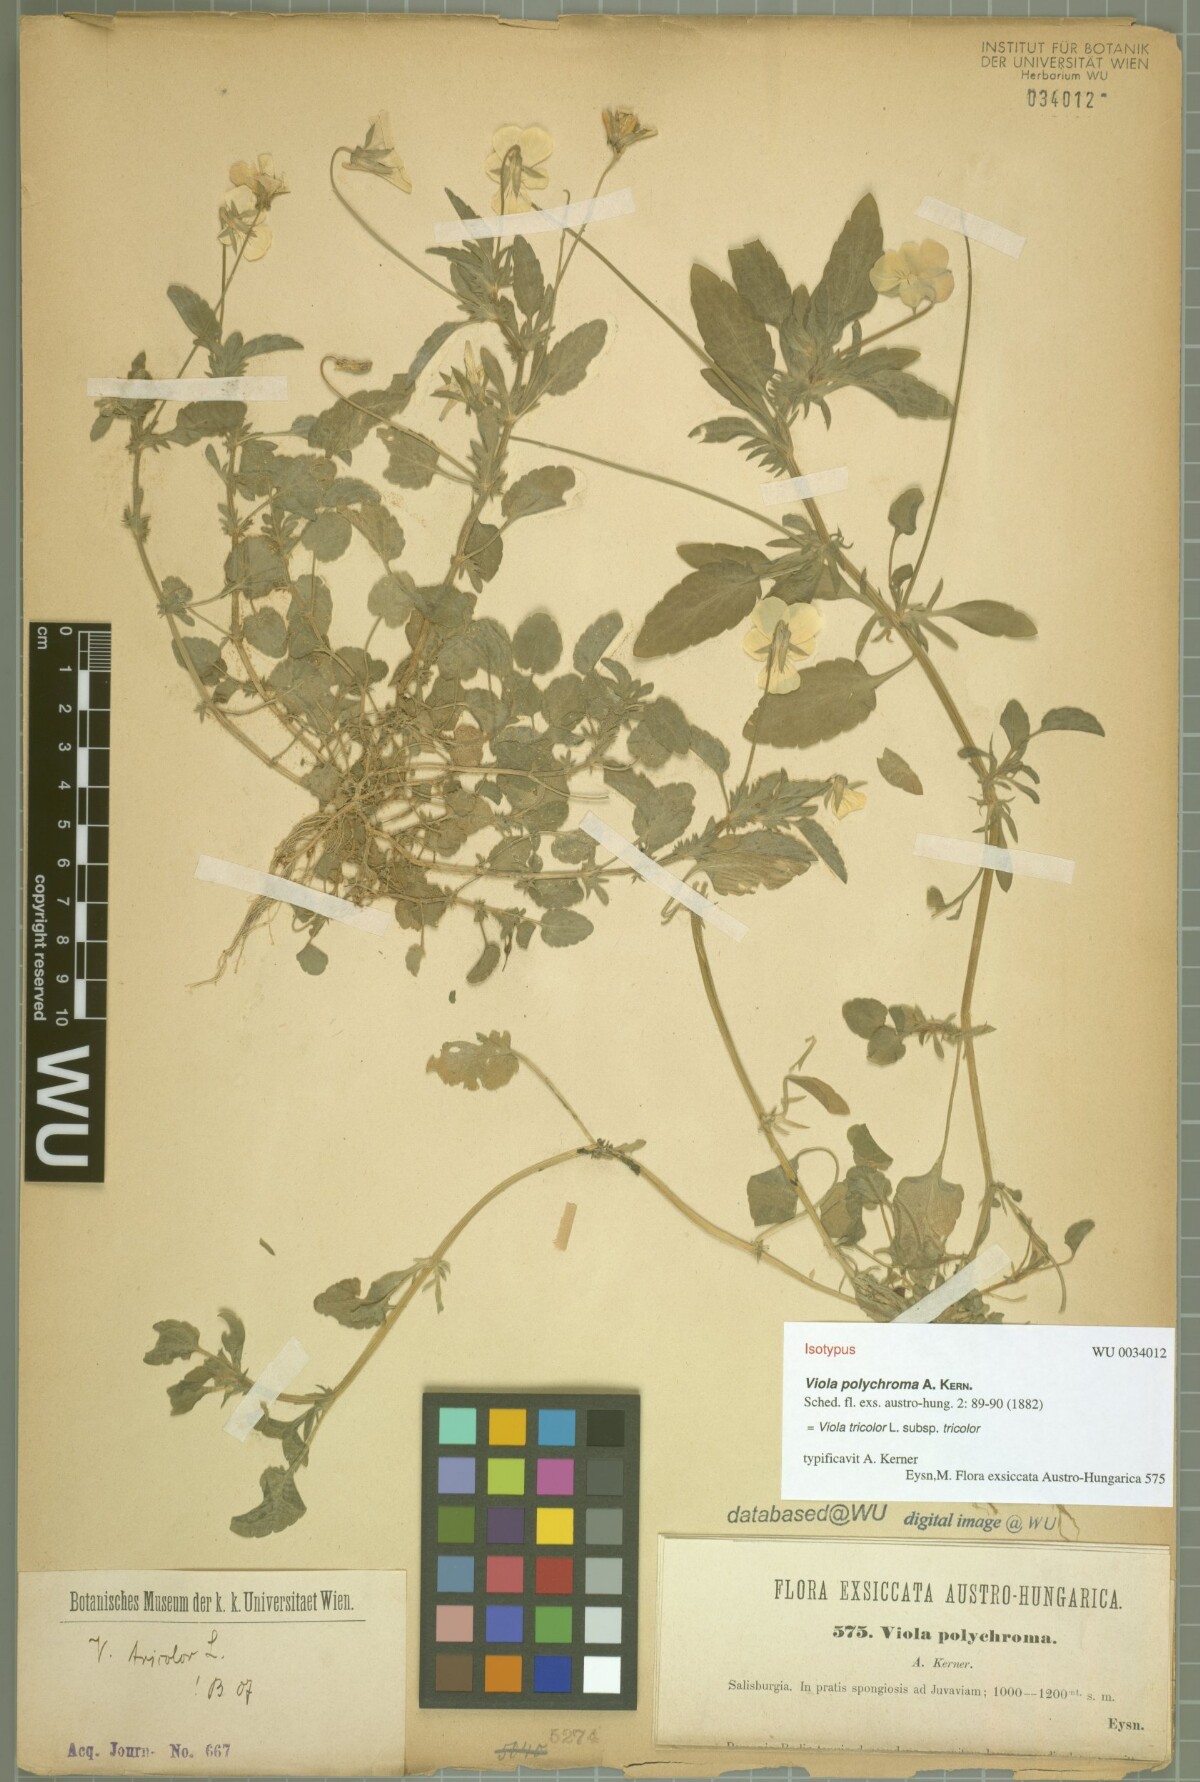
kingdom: Plantae
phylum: Tracheophyta
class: Magnoliopsida
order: Malpighiales
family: Violaceae
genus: Viola
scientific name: Viola tricolor
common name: Pansy
